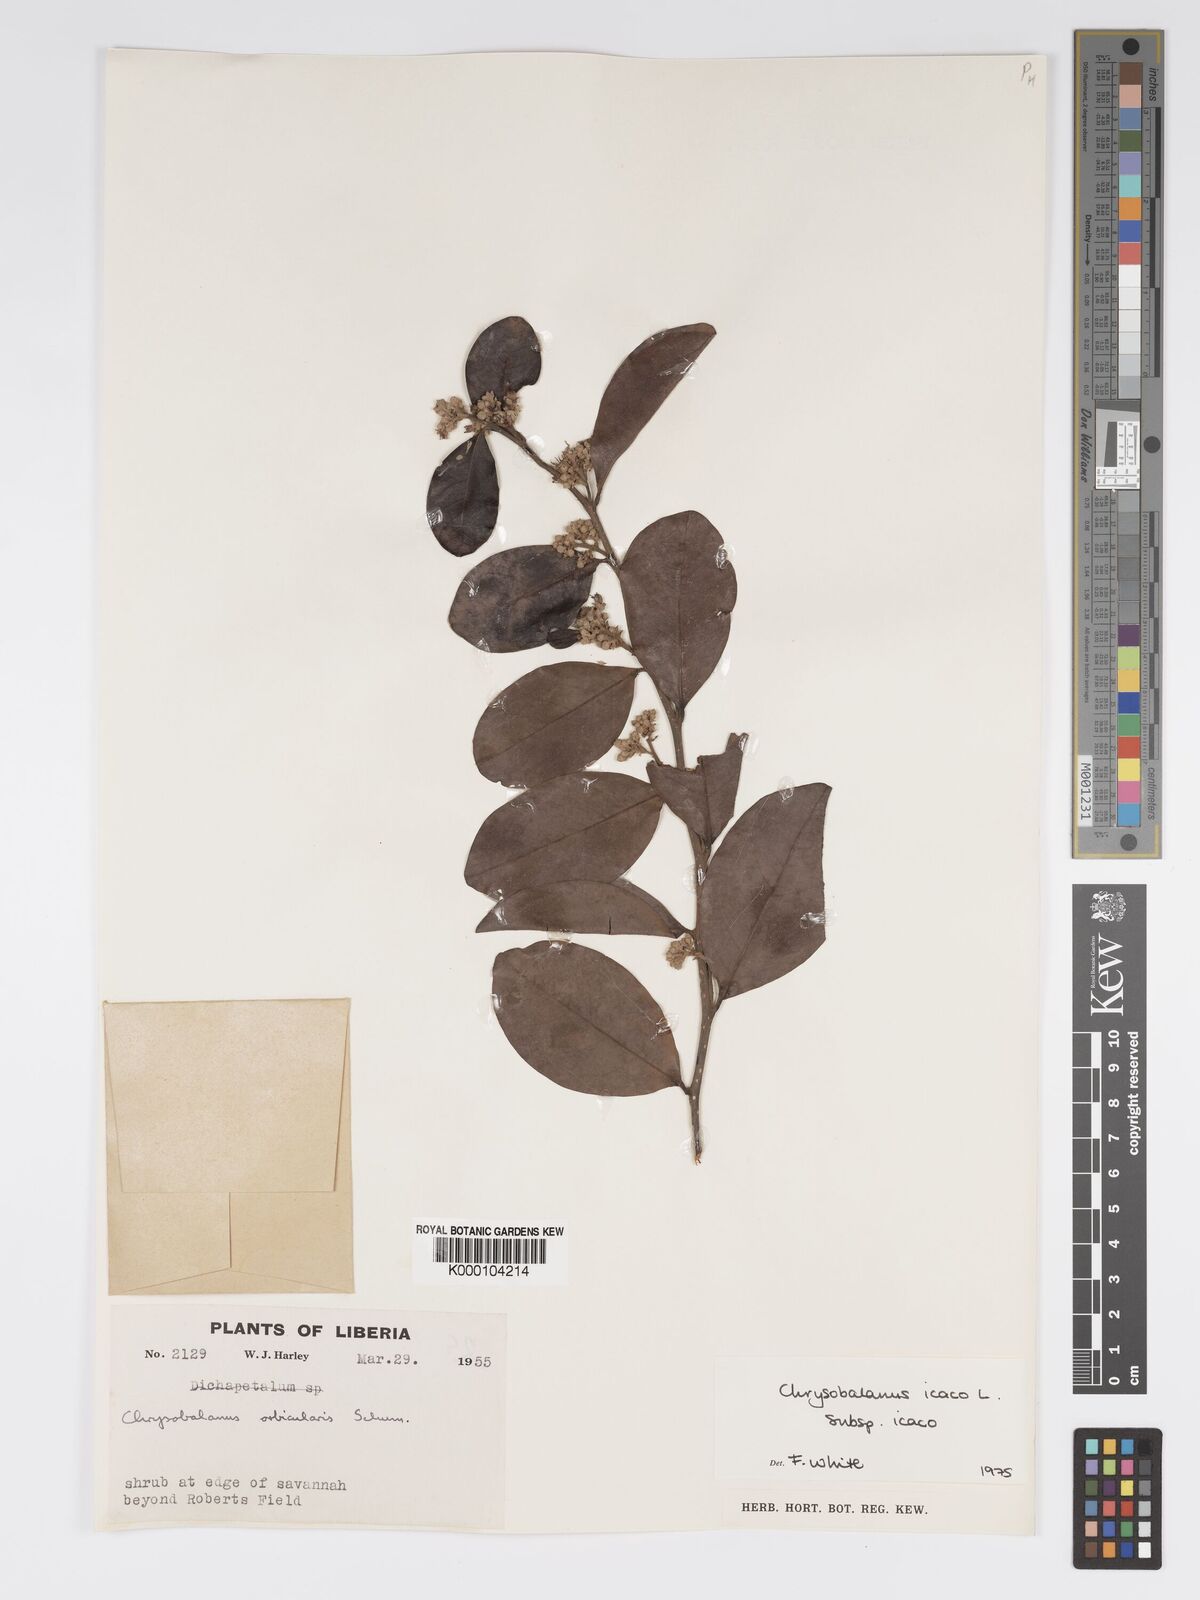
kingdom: Plantae
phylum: Tracheophyta
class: Magnoliopsida
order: Malpighiales
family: Chrysobalanaceae
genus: Chrysobalanus
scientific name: Chrysobalanus icaco
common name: Coco plum
